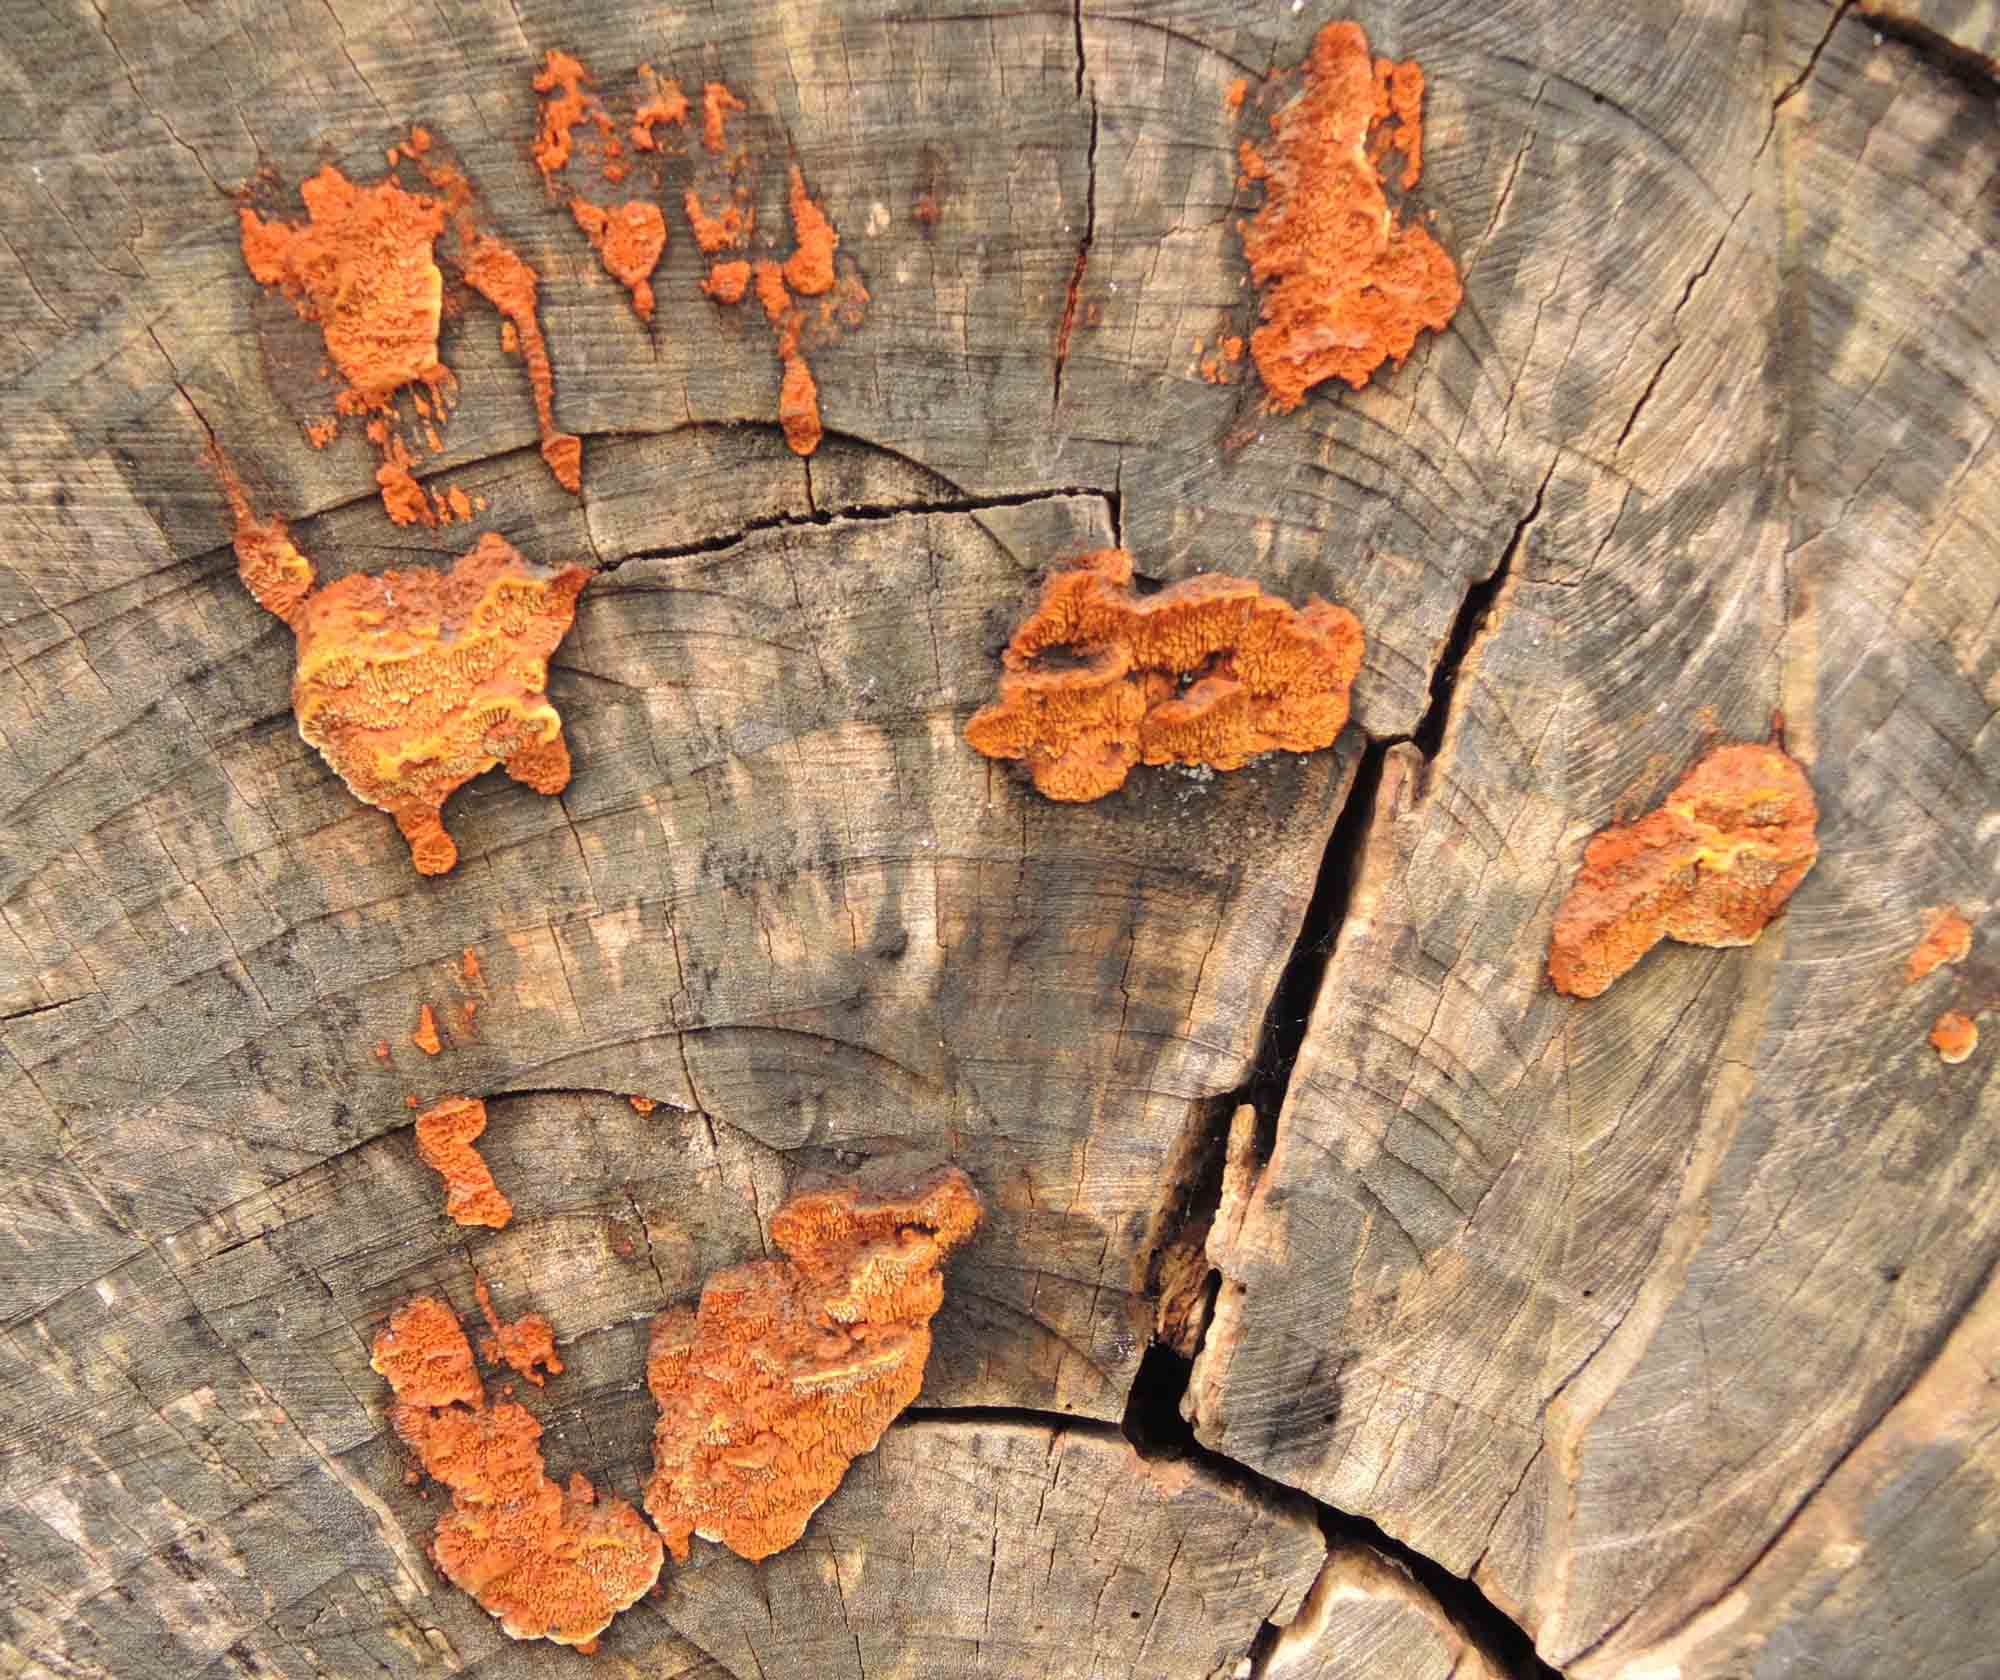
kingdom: Fungi
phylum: Basidiomycota
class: Agaricomycetes
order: Gloeophyllales
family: Gloeophyllaceae
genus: Gloeophyllum
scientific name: Gloeophyllum sepiarium
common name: fyrre-korkhat
